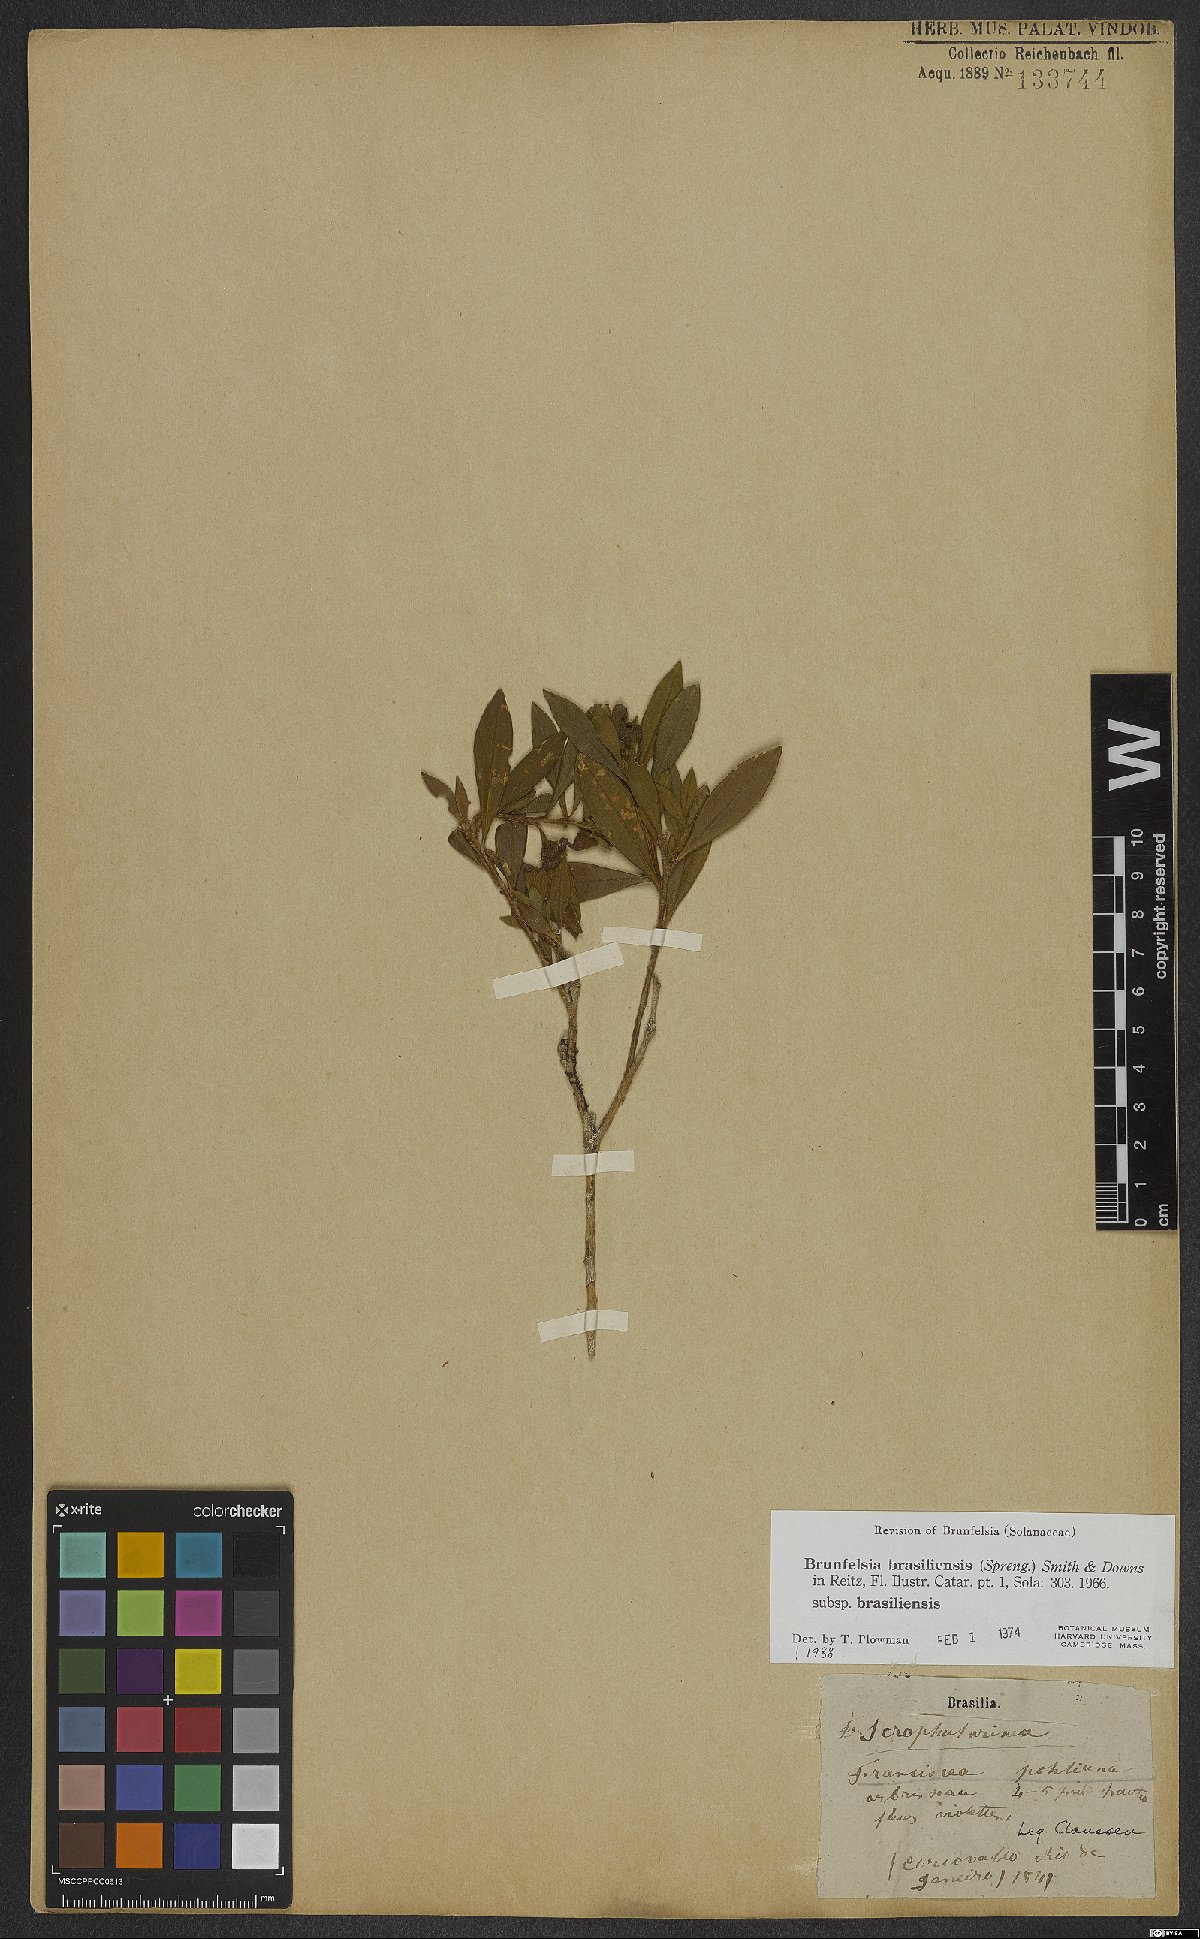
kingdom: Plantae
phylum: Tracheophyta
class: Magnoliopsida
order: Solanales
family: Solanaceae
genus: Brunfelsia
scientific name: Brunfelsia brasiliensis
